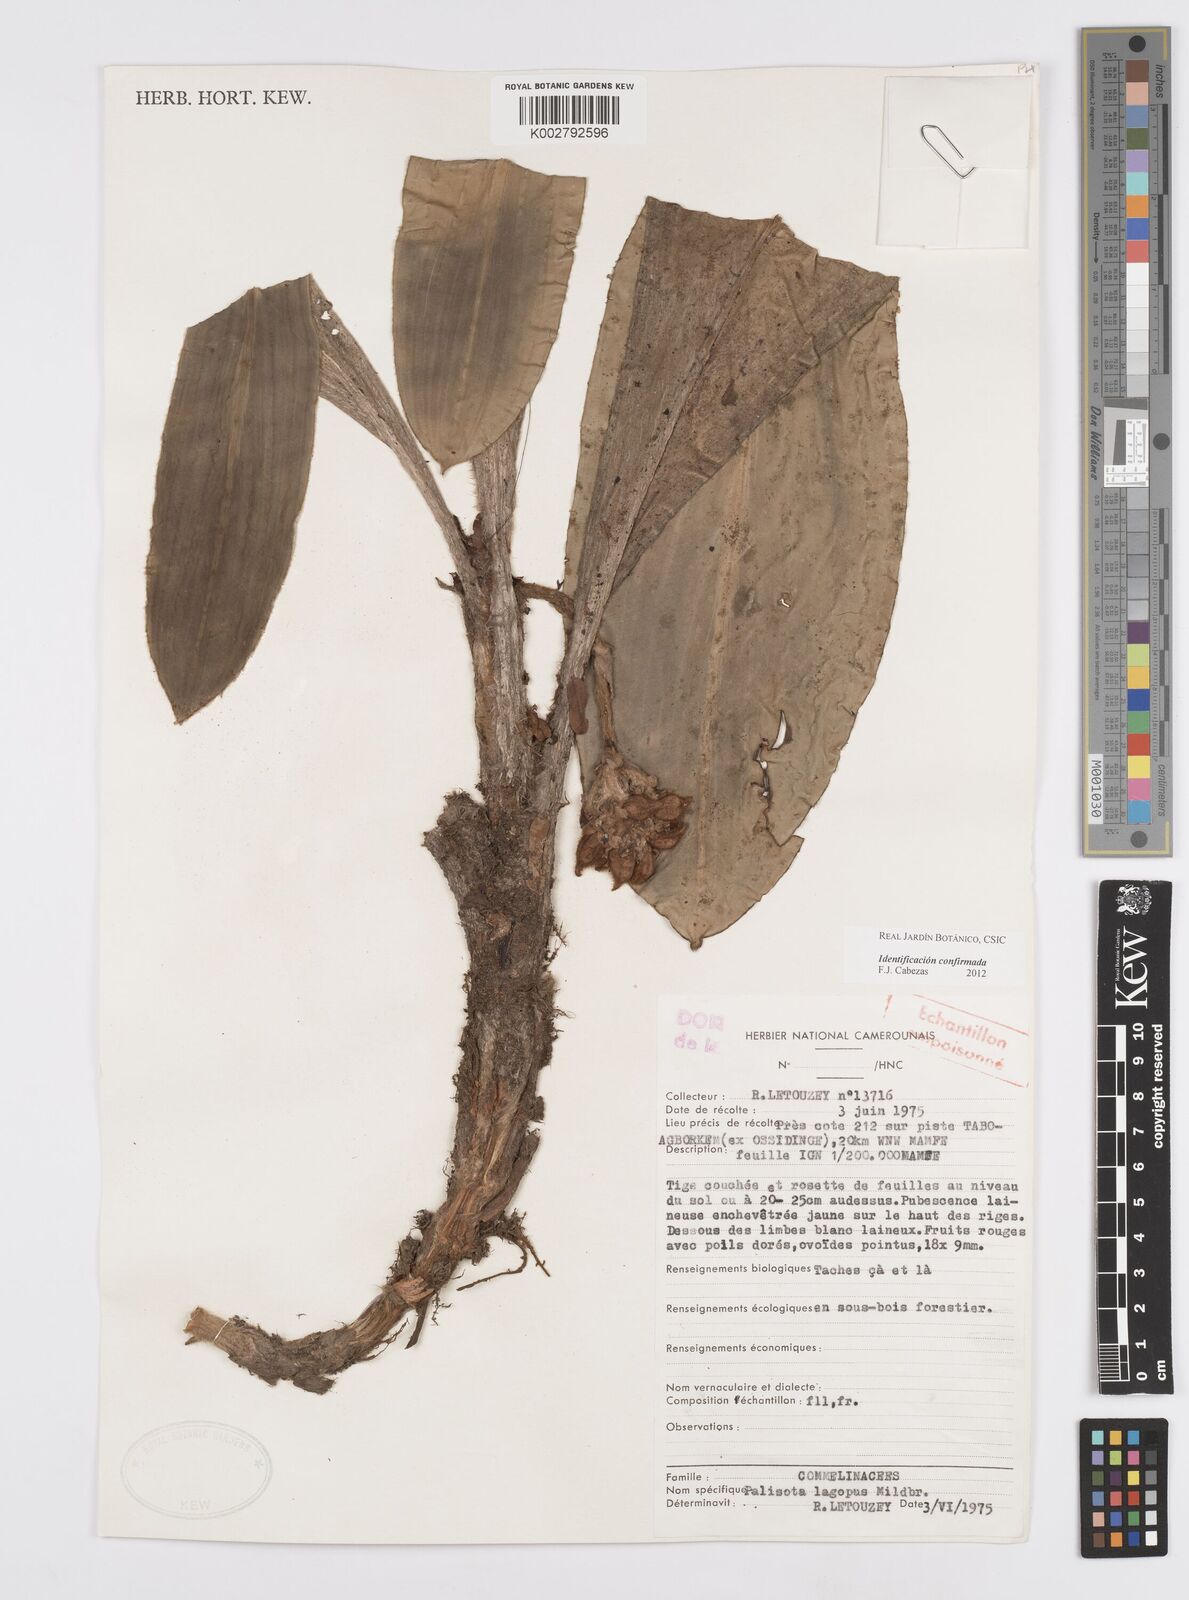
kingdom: Plantae
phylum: Tracheophyta
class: Liliopsida
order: Commelinales
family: Commelinaceae
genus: Palisota
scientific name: Palisota lagopus
